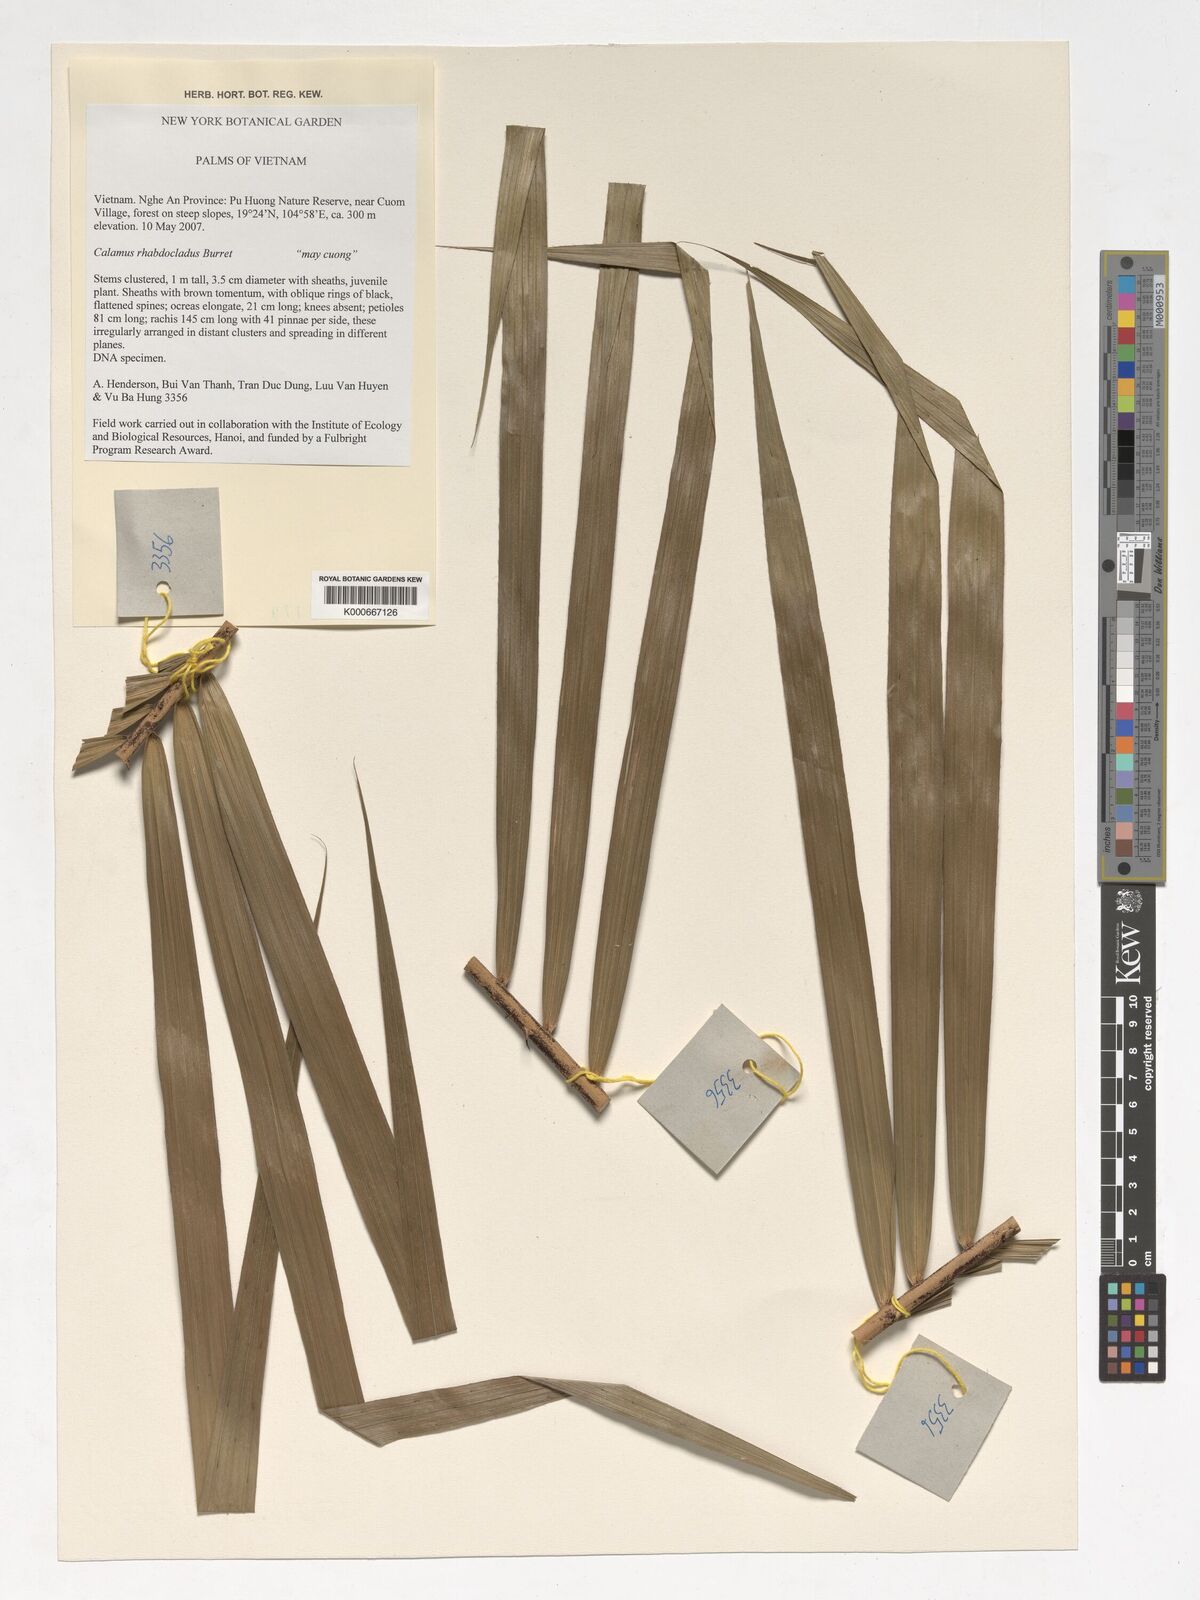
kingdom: Plantae
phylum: Tracheophyta
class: Liliopsida
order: Arecales
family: Arecaceae
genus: Calamus
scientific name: Calamus rhabdocladus
